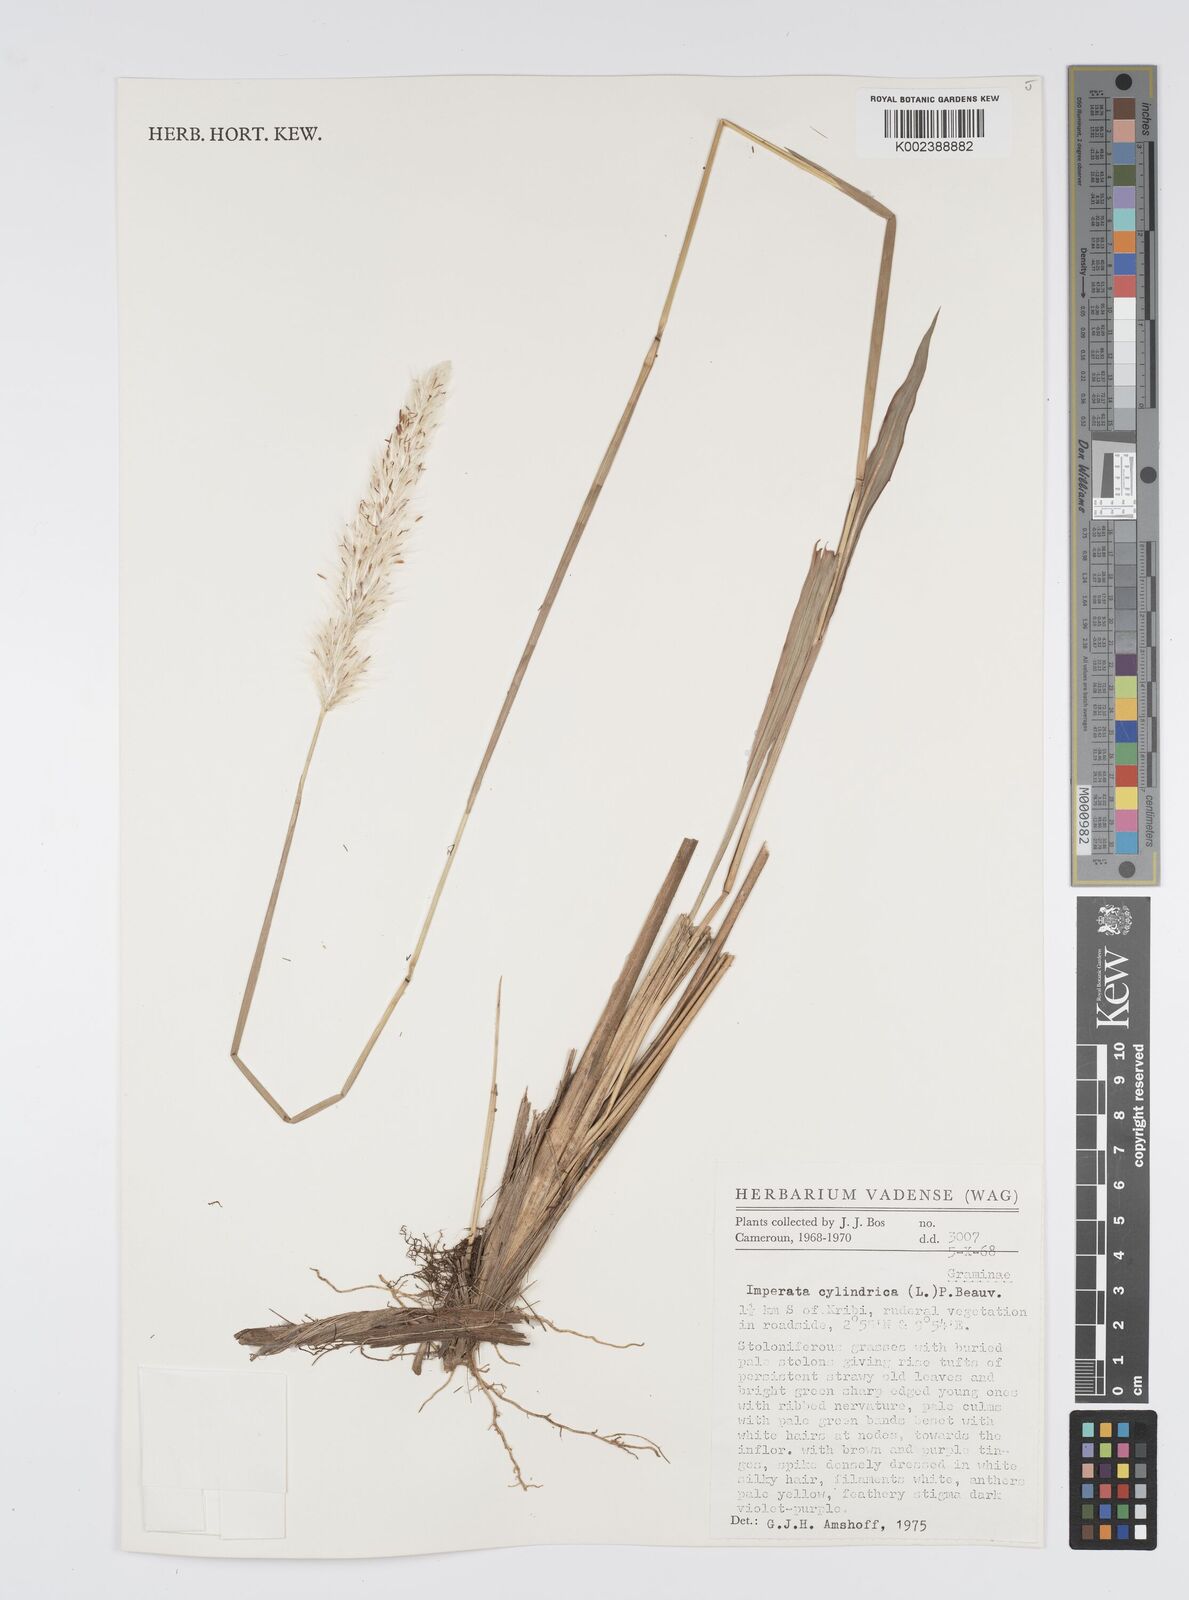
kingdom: Plantae
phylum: Tracheophyta
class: Liliopsida
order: Poales
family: Poaceae
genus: Imperata
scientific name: Imperata cylindrica
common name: Cogongrass
